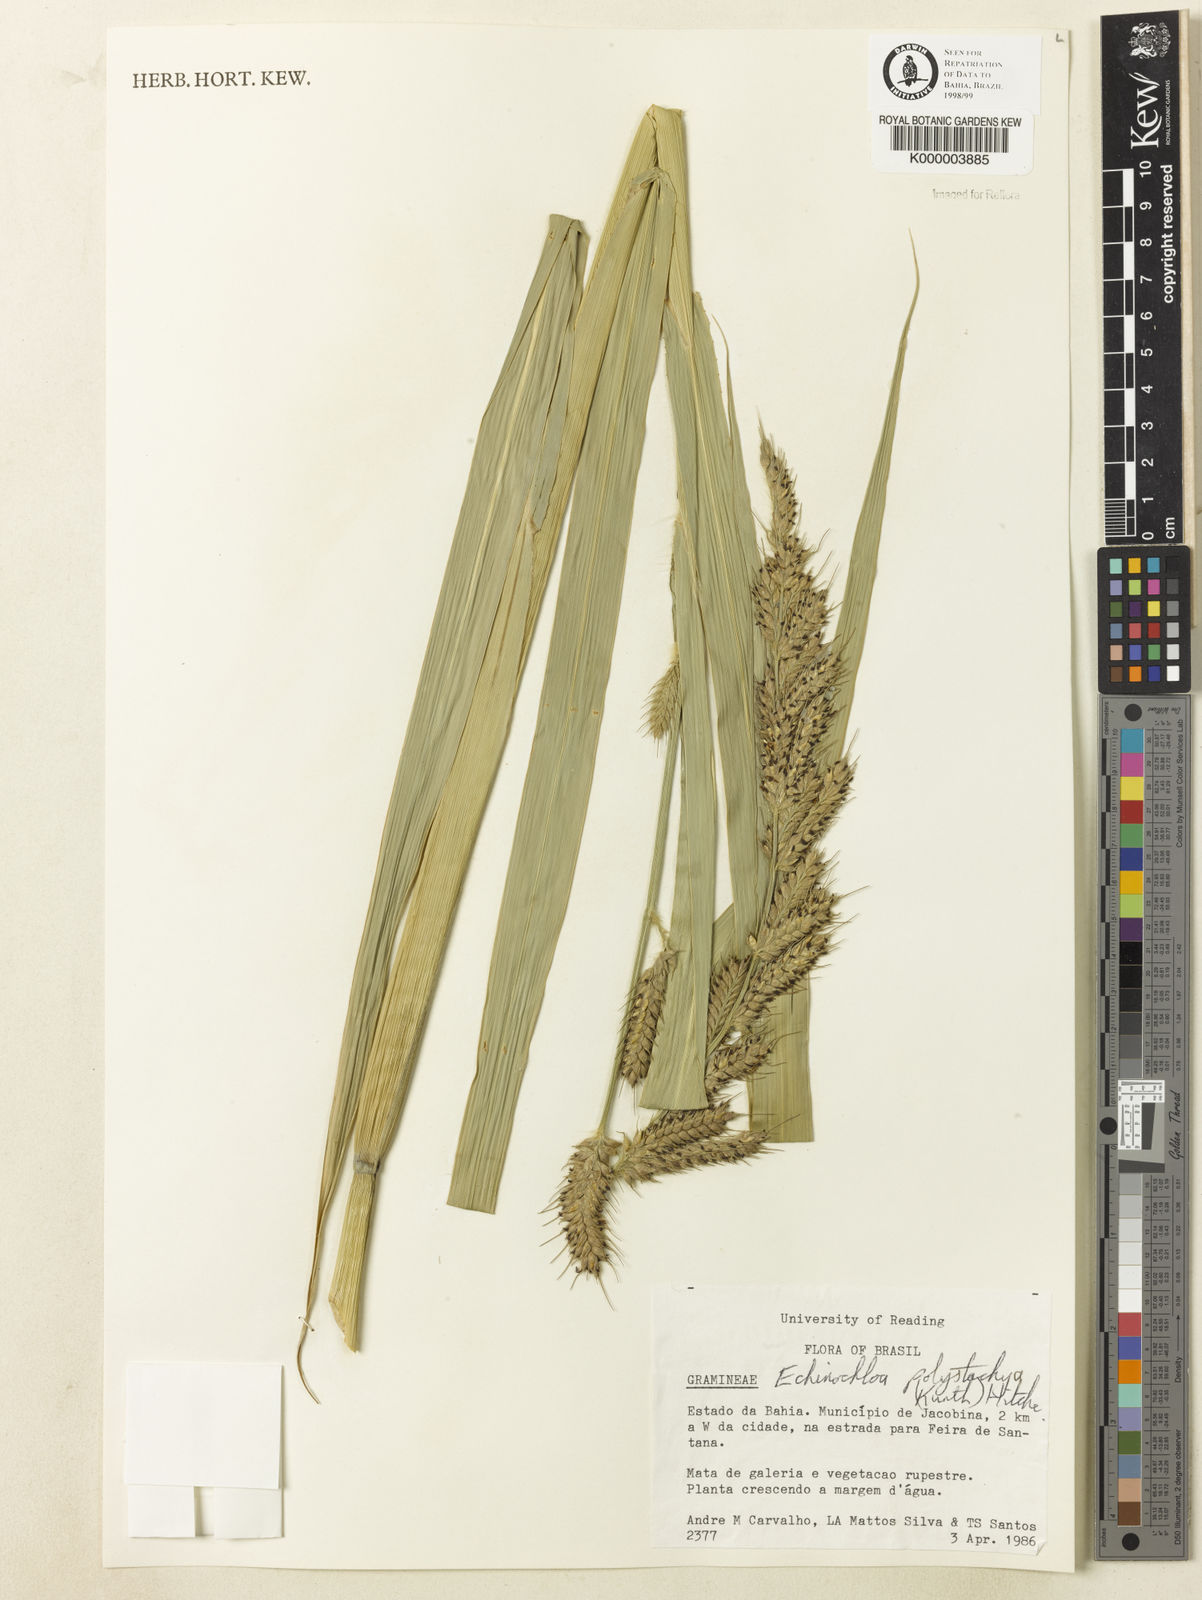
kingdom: Plantae
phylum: Tracheophyta
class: Liliopsida
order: Poales
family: Poaceae
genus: Echinochloa
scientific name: Echinochloa polystachya
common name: Creeping river grass
